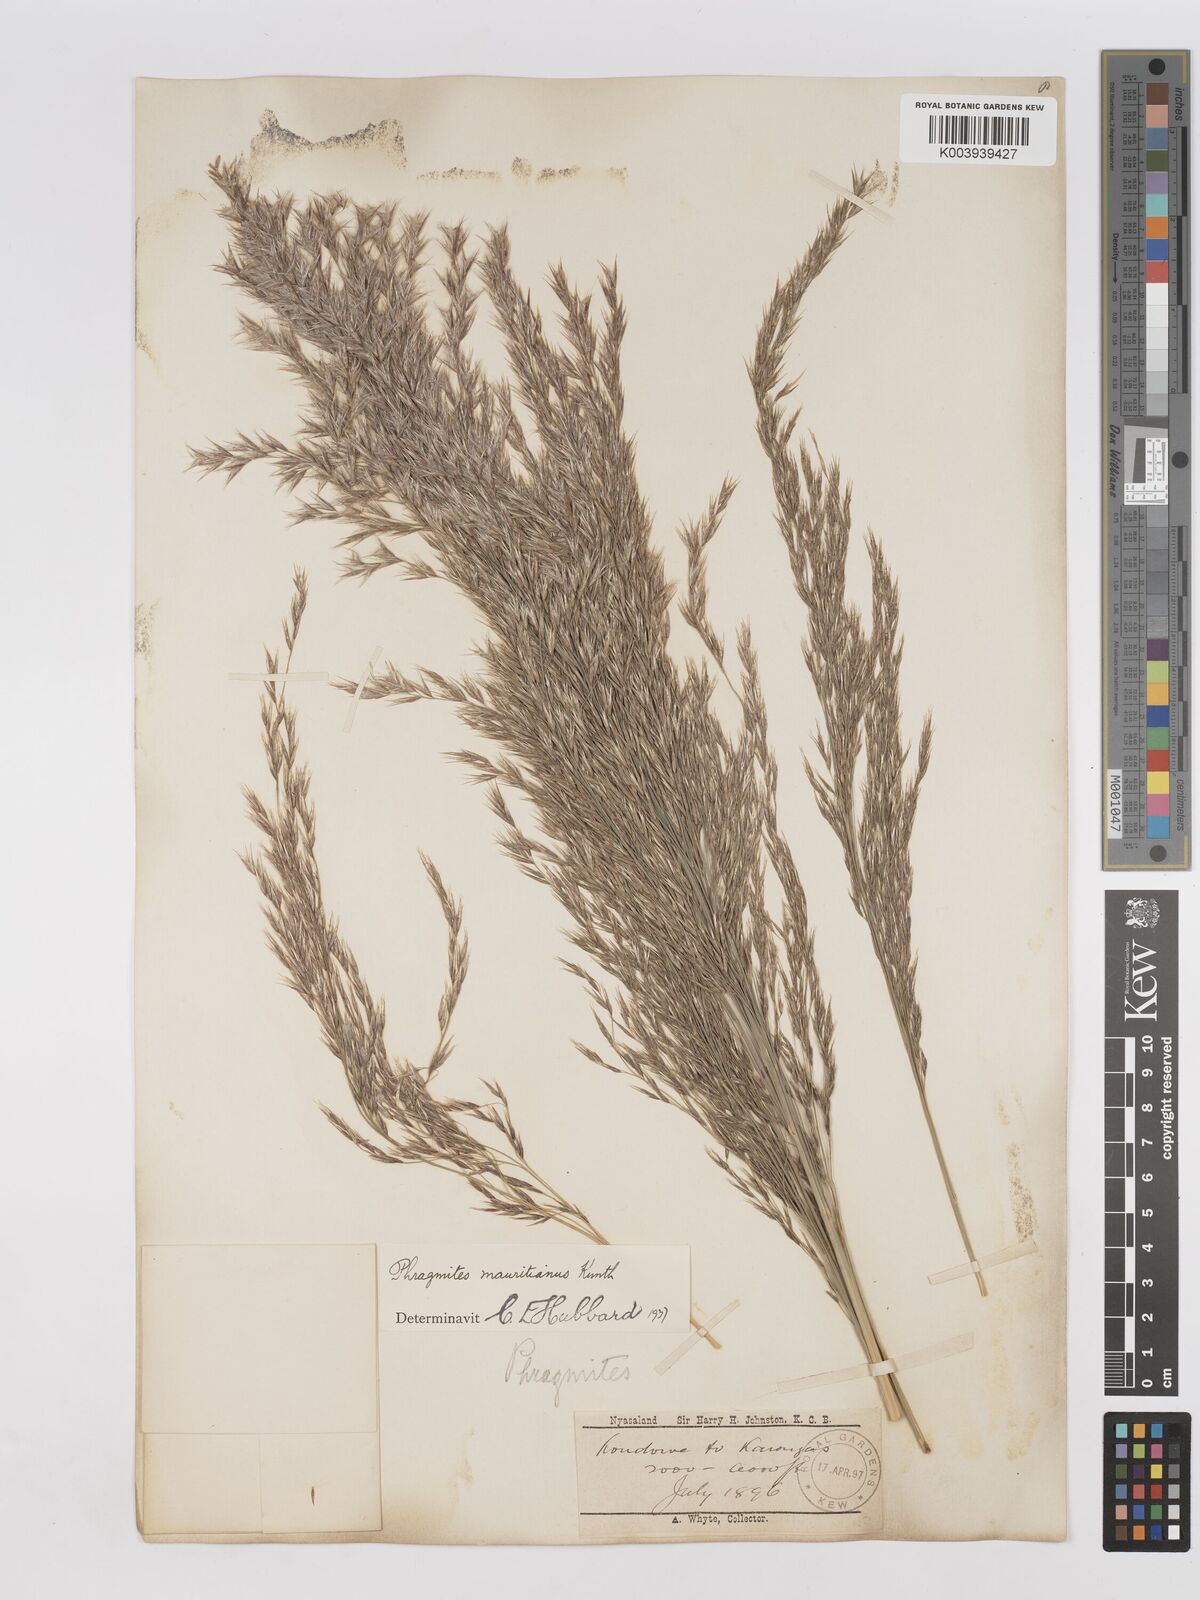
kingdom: Plantae
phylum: Tracheophyta
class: Liliopsida
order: Poales
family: Poaceae
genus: Phragmites
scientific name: Phragmites mauritianus
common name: Reed grass
